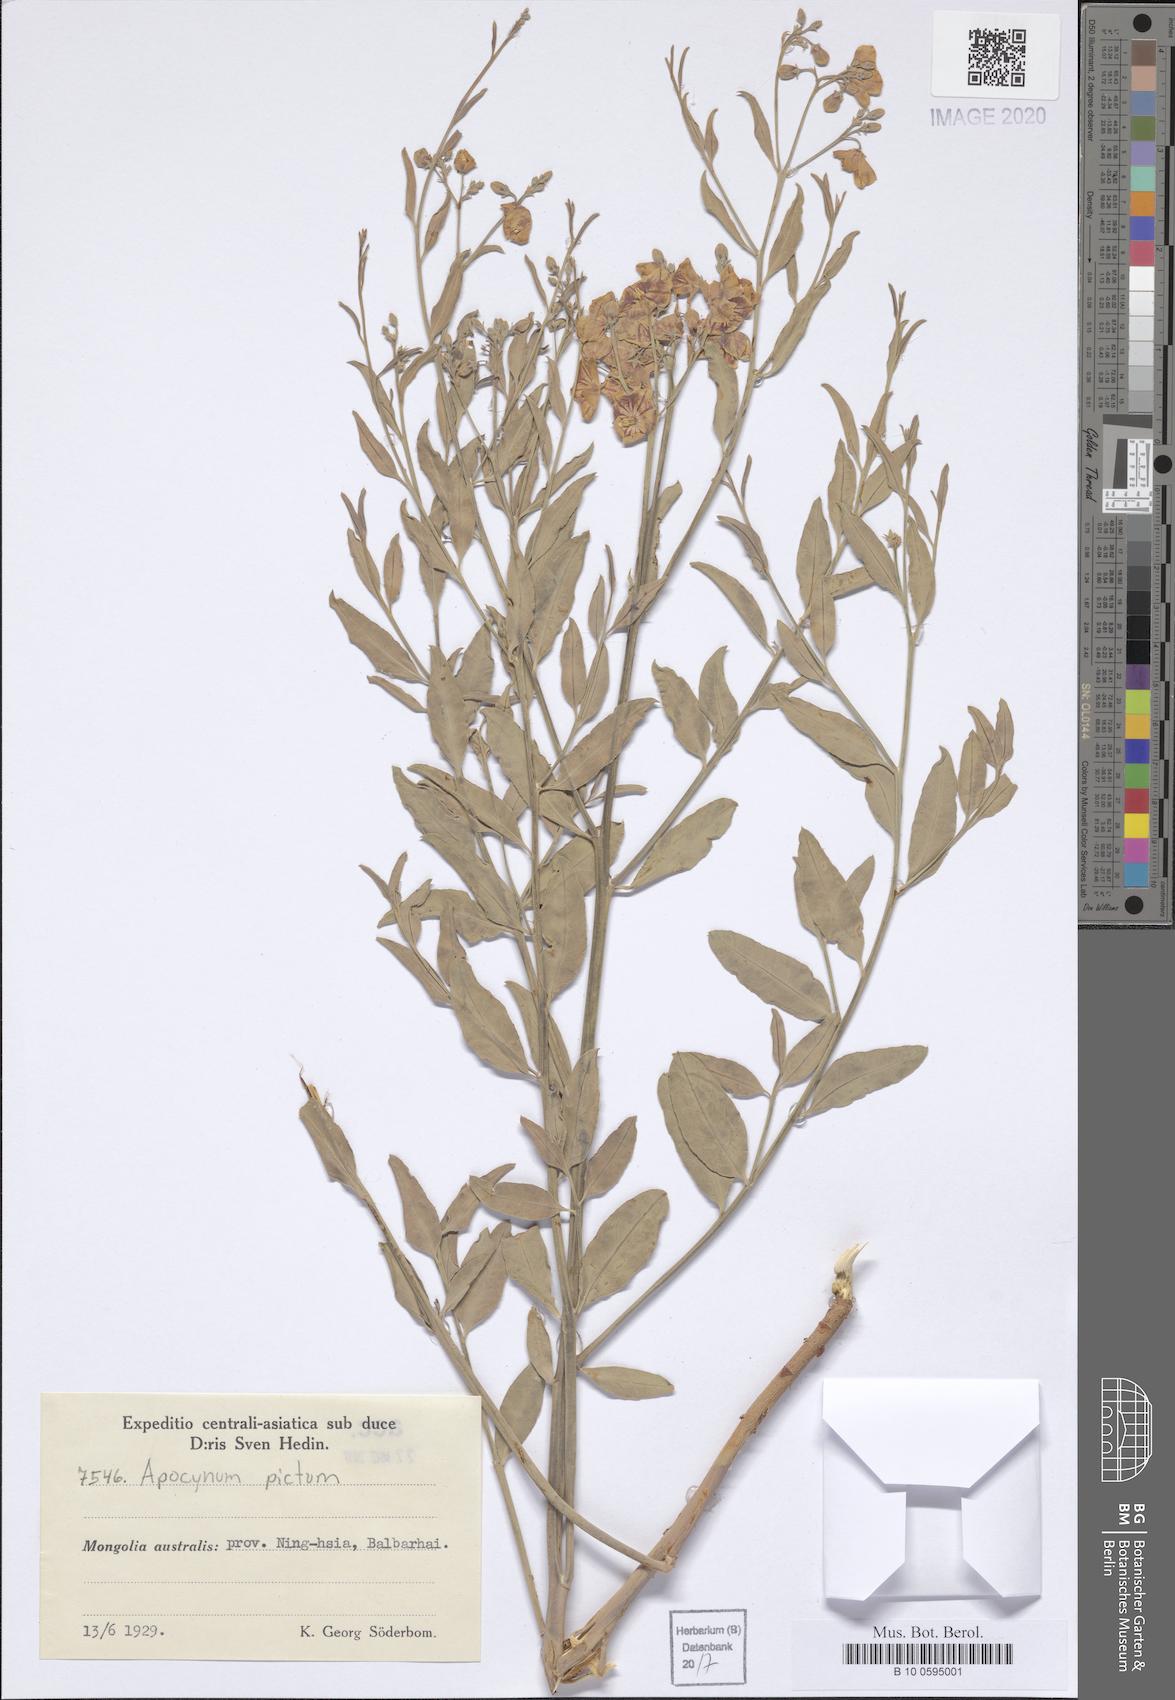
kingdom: Plantae
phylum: Tracheophyta
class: Magnoliopsida
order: Gentianales
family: Apocynaceae
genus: Poacynum
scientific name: Poacynum pictum
